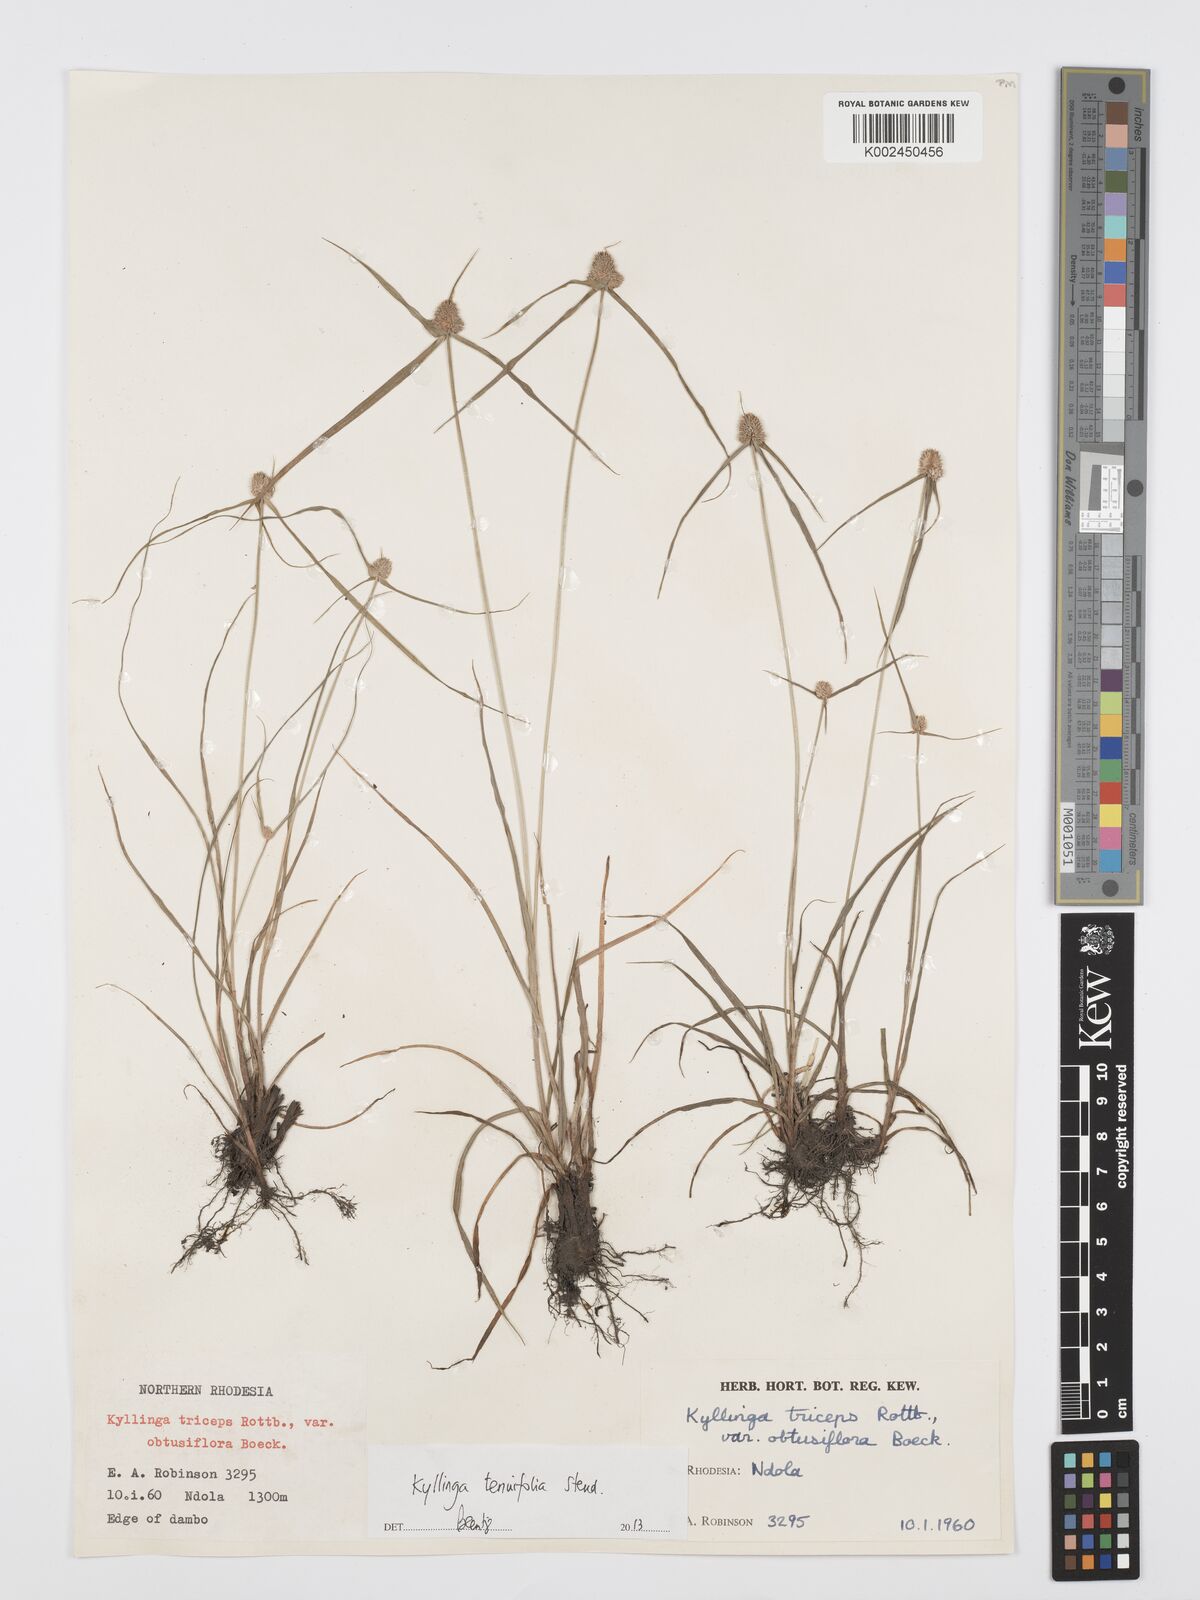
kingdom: Plantae
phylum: Tracheophyta
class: Liliopsida
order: Poales
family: Cyperaceae
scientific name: Cyperaceae
